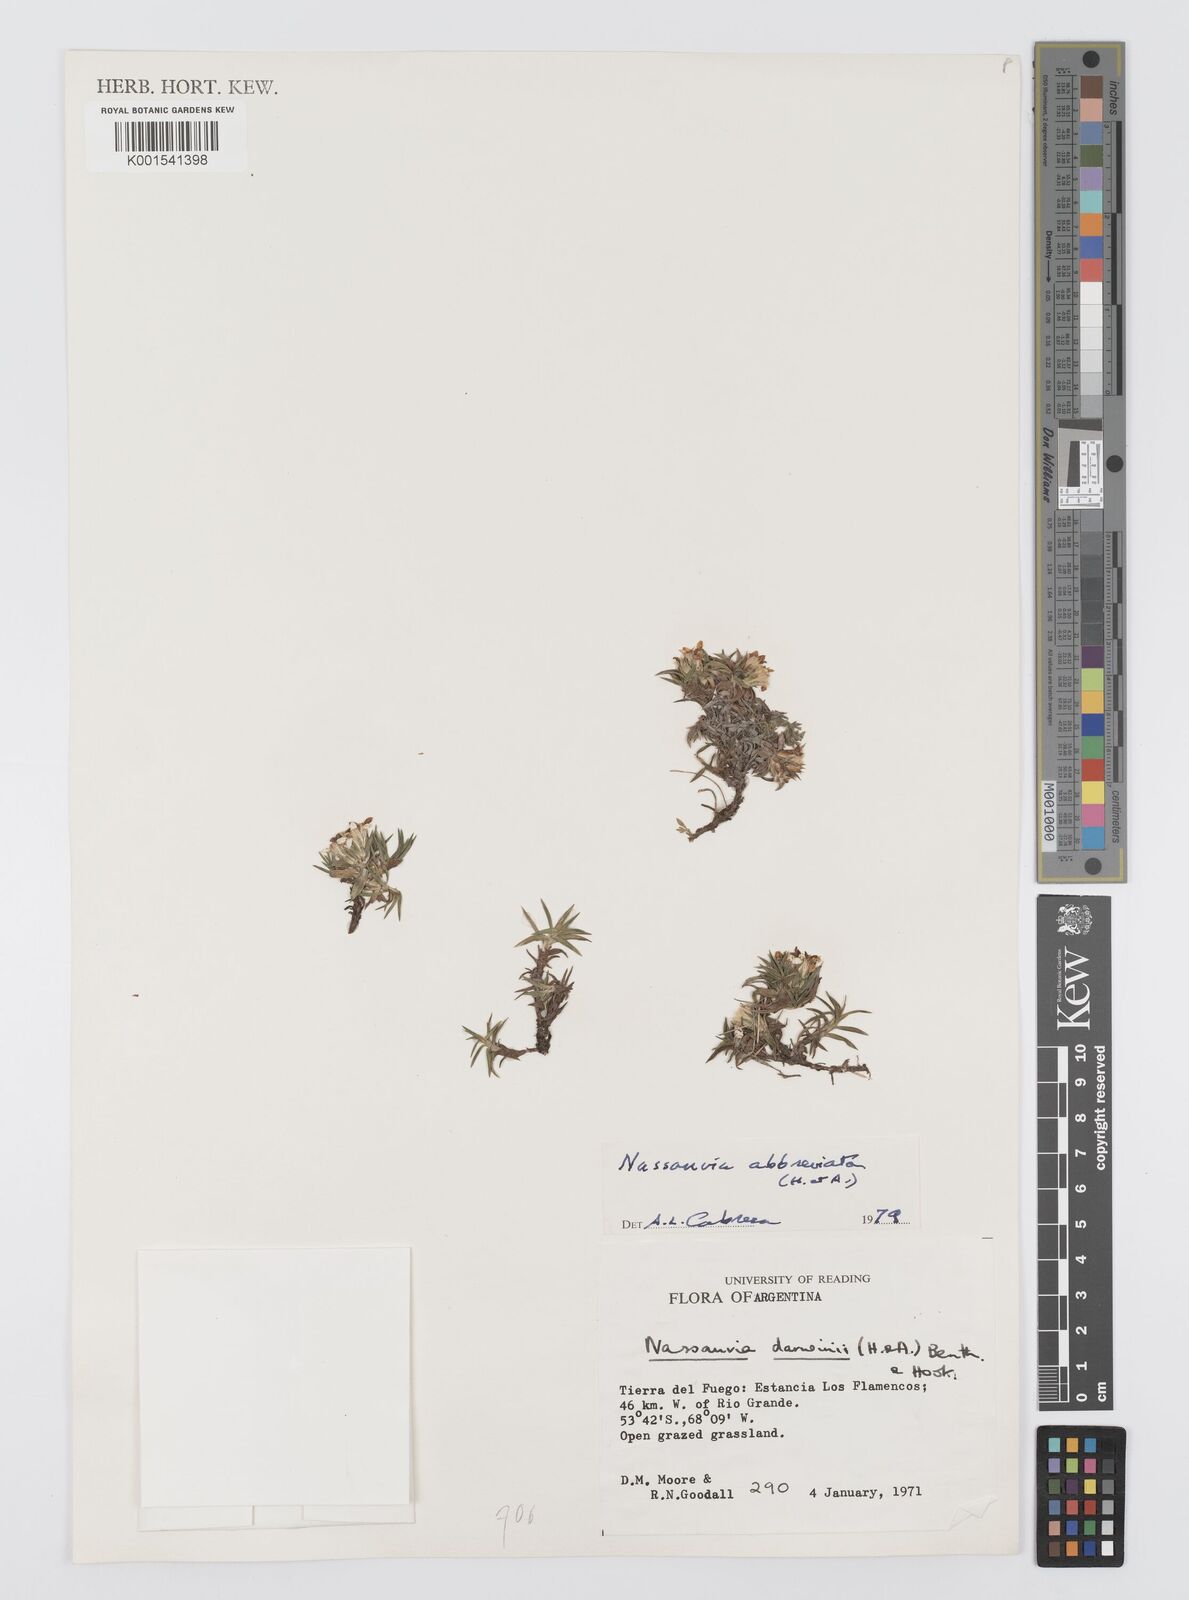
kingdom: Plantae
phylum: Tracheophyta
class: Magnoliopsida
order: Asterales
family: Asteraceae
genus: Nassauvia
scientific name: Nassauvia aculeata
